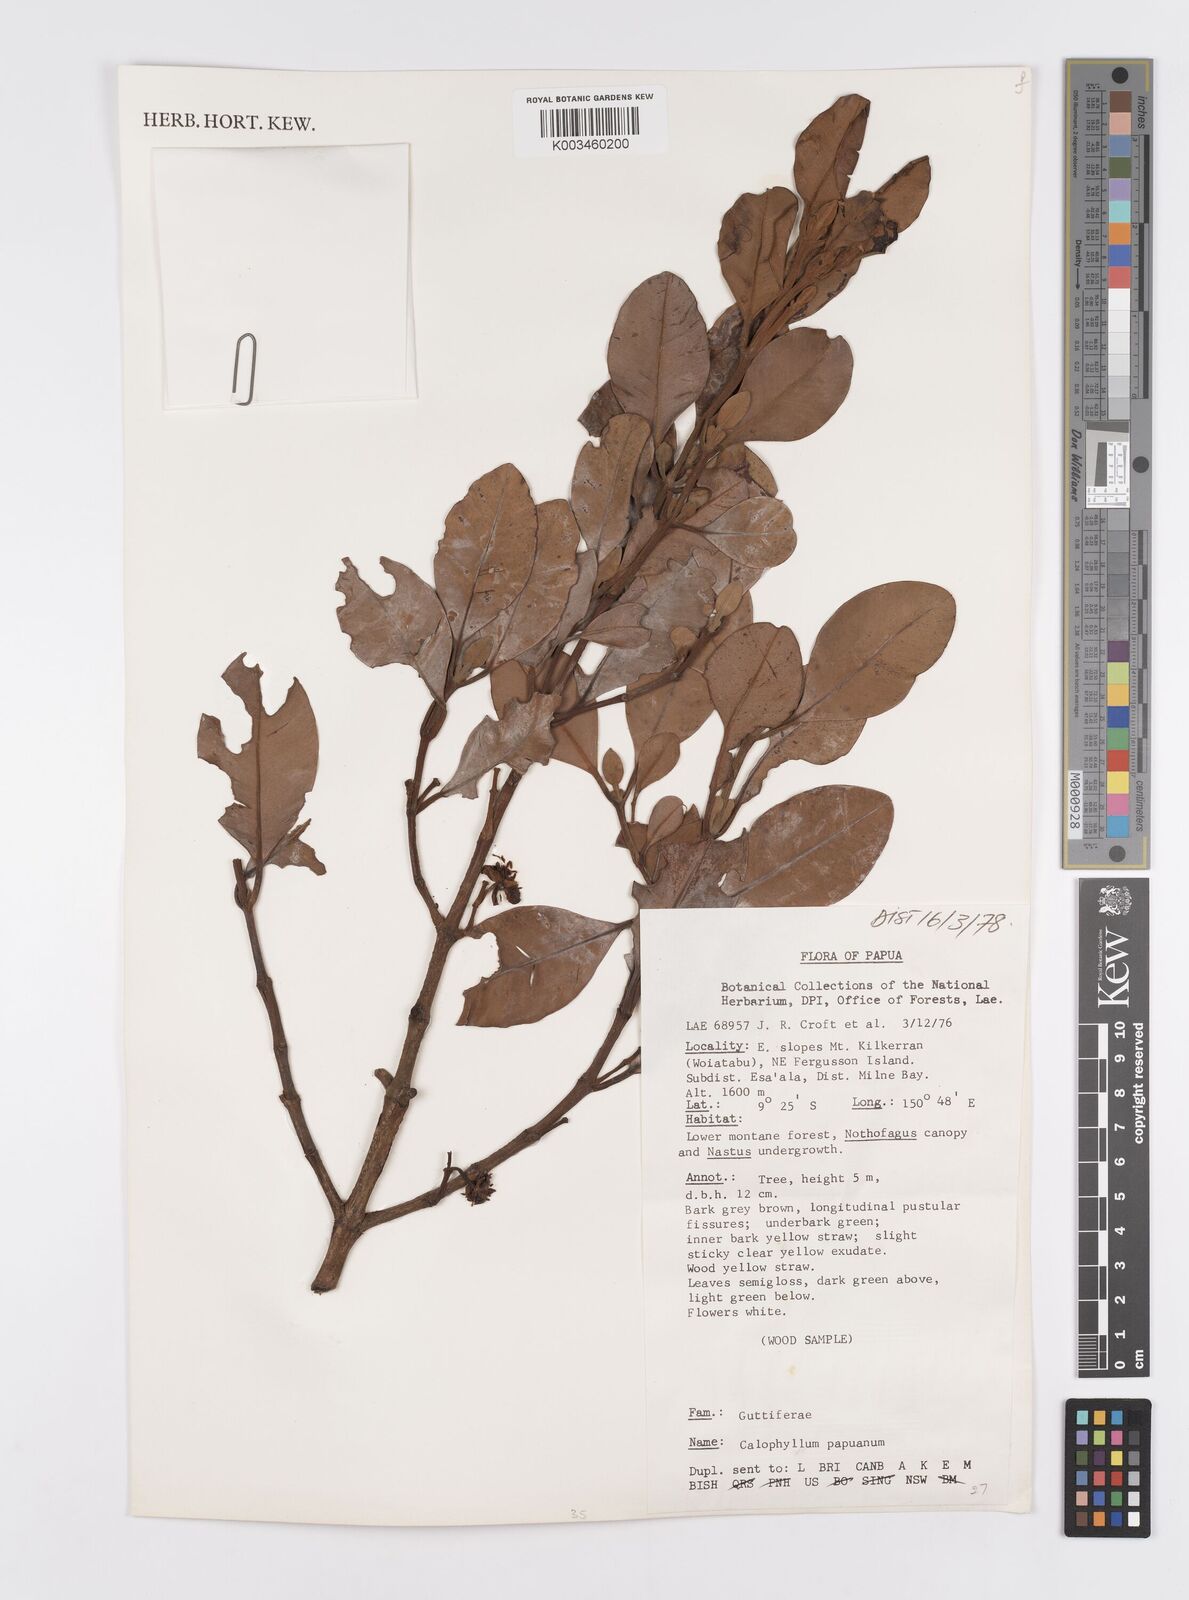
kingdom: Plantae
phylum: Tracheophyta
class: Magnoliopsida
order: Malpighiales
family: Calophyllaceae
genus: Calophyllum
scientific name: Calophyllum papuanum
